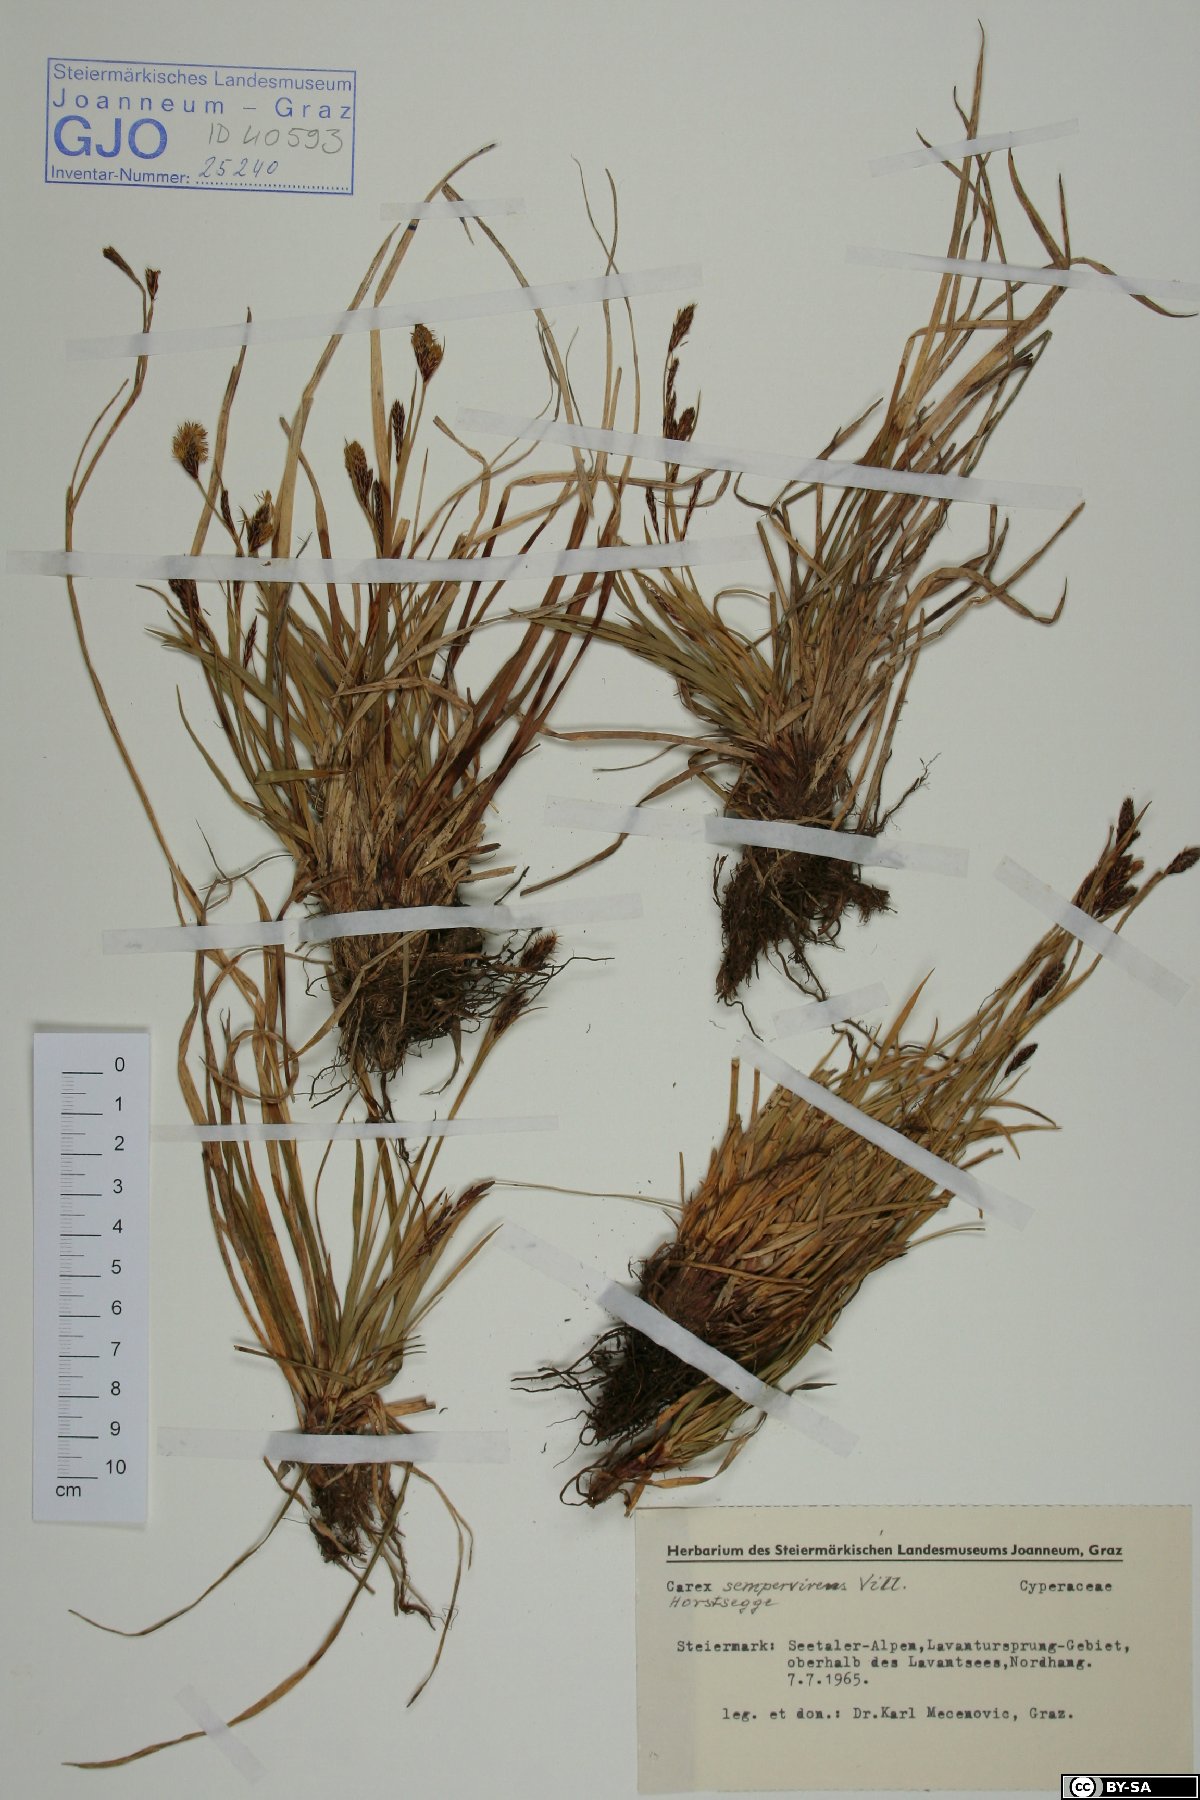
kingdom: Plantae
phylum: Tracheophyta
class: Liliopsida
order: Poales
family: Cyperaceae
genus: Carex
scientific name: Carex sempervirens
